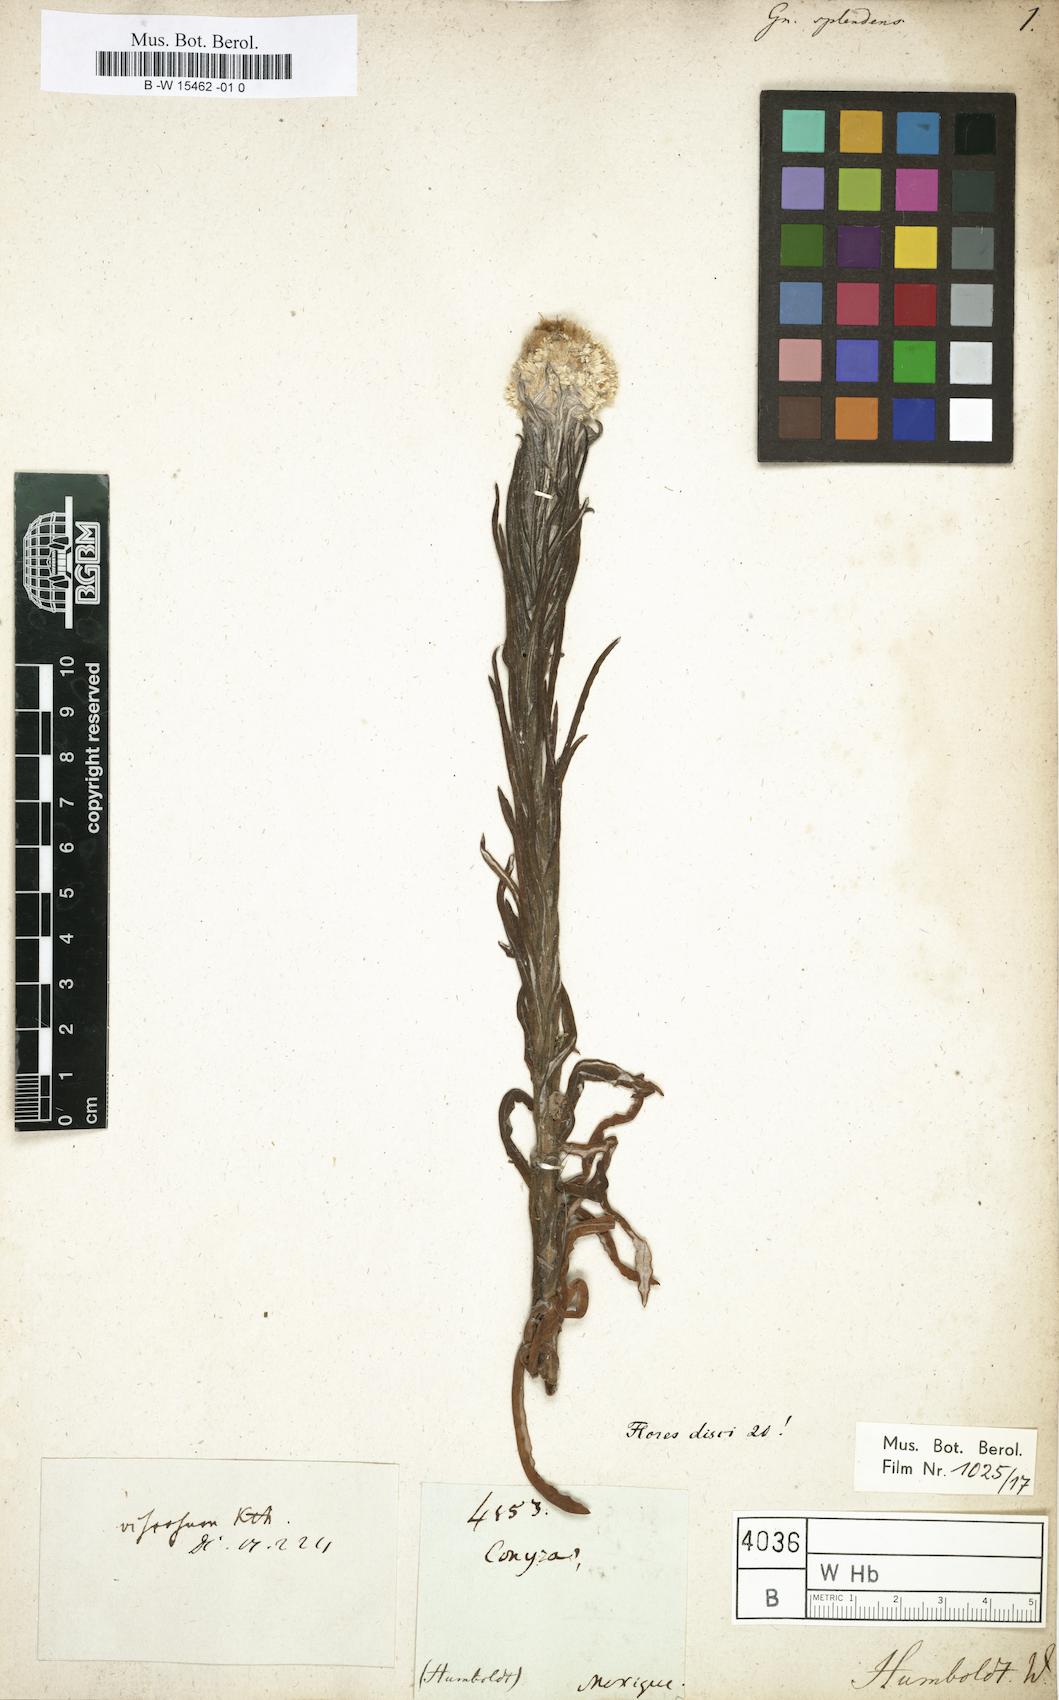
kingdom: Plantae
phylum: Tracheophyta
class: Magnoliopsida
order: Asterales
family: Asteraceae
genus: Gnaphalium
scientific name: Gnaphalium splendens
